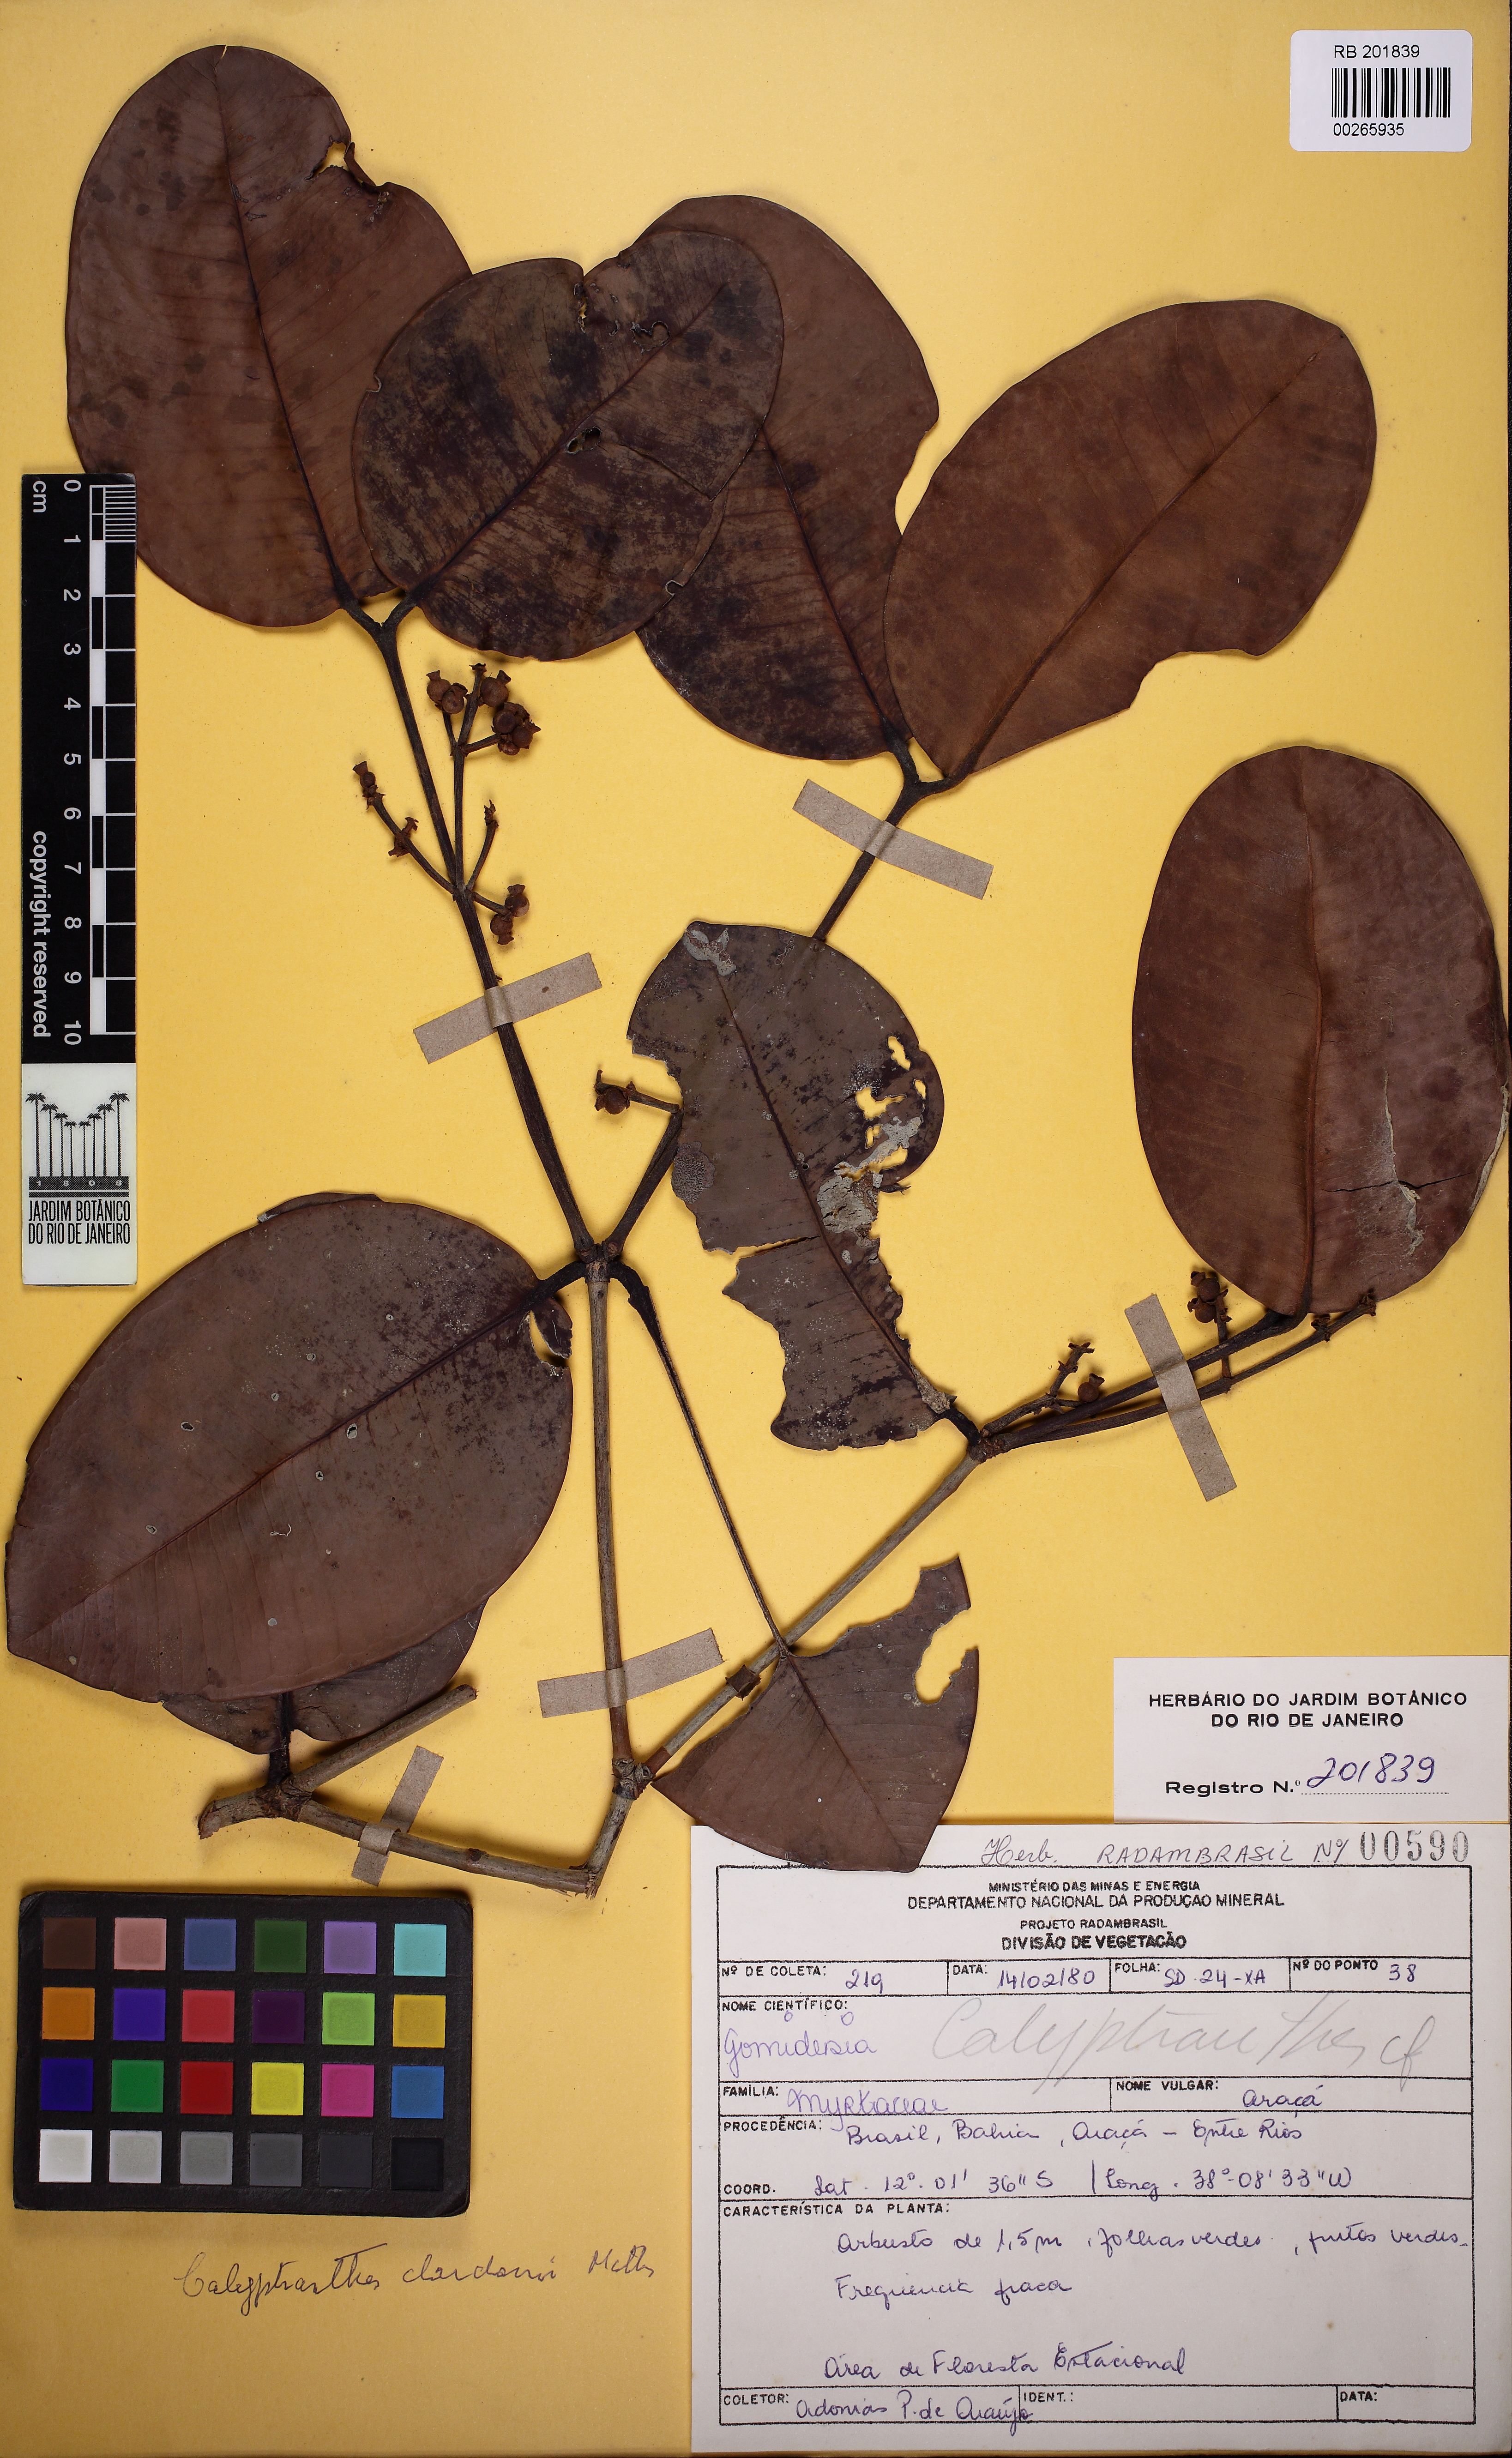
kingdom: Plantae
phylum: Tracheophyta
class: Magnoliopsida
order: Myrtales
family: Myrtaceae
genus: Calyptranthes
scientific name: Calyptranthes dardanoi
